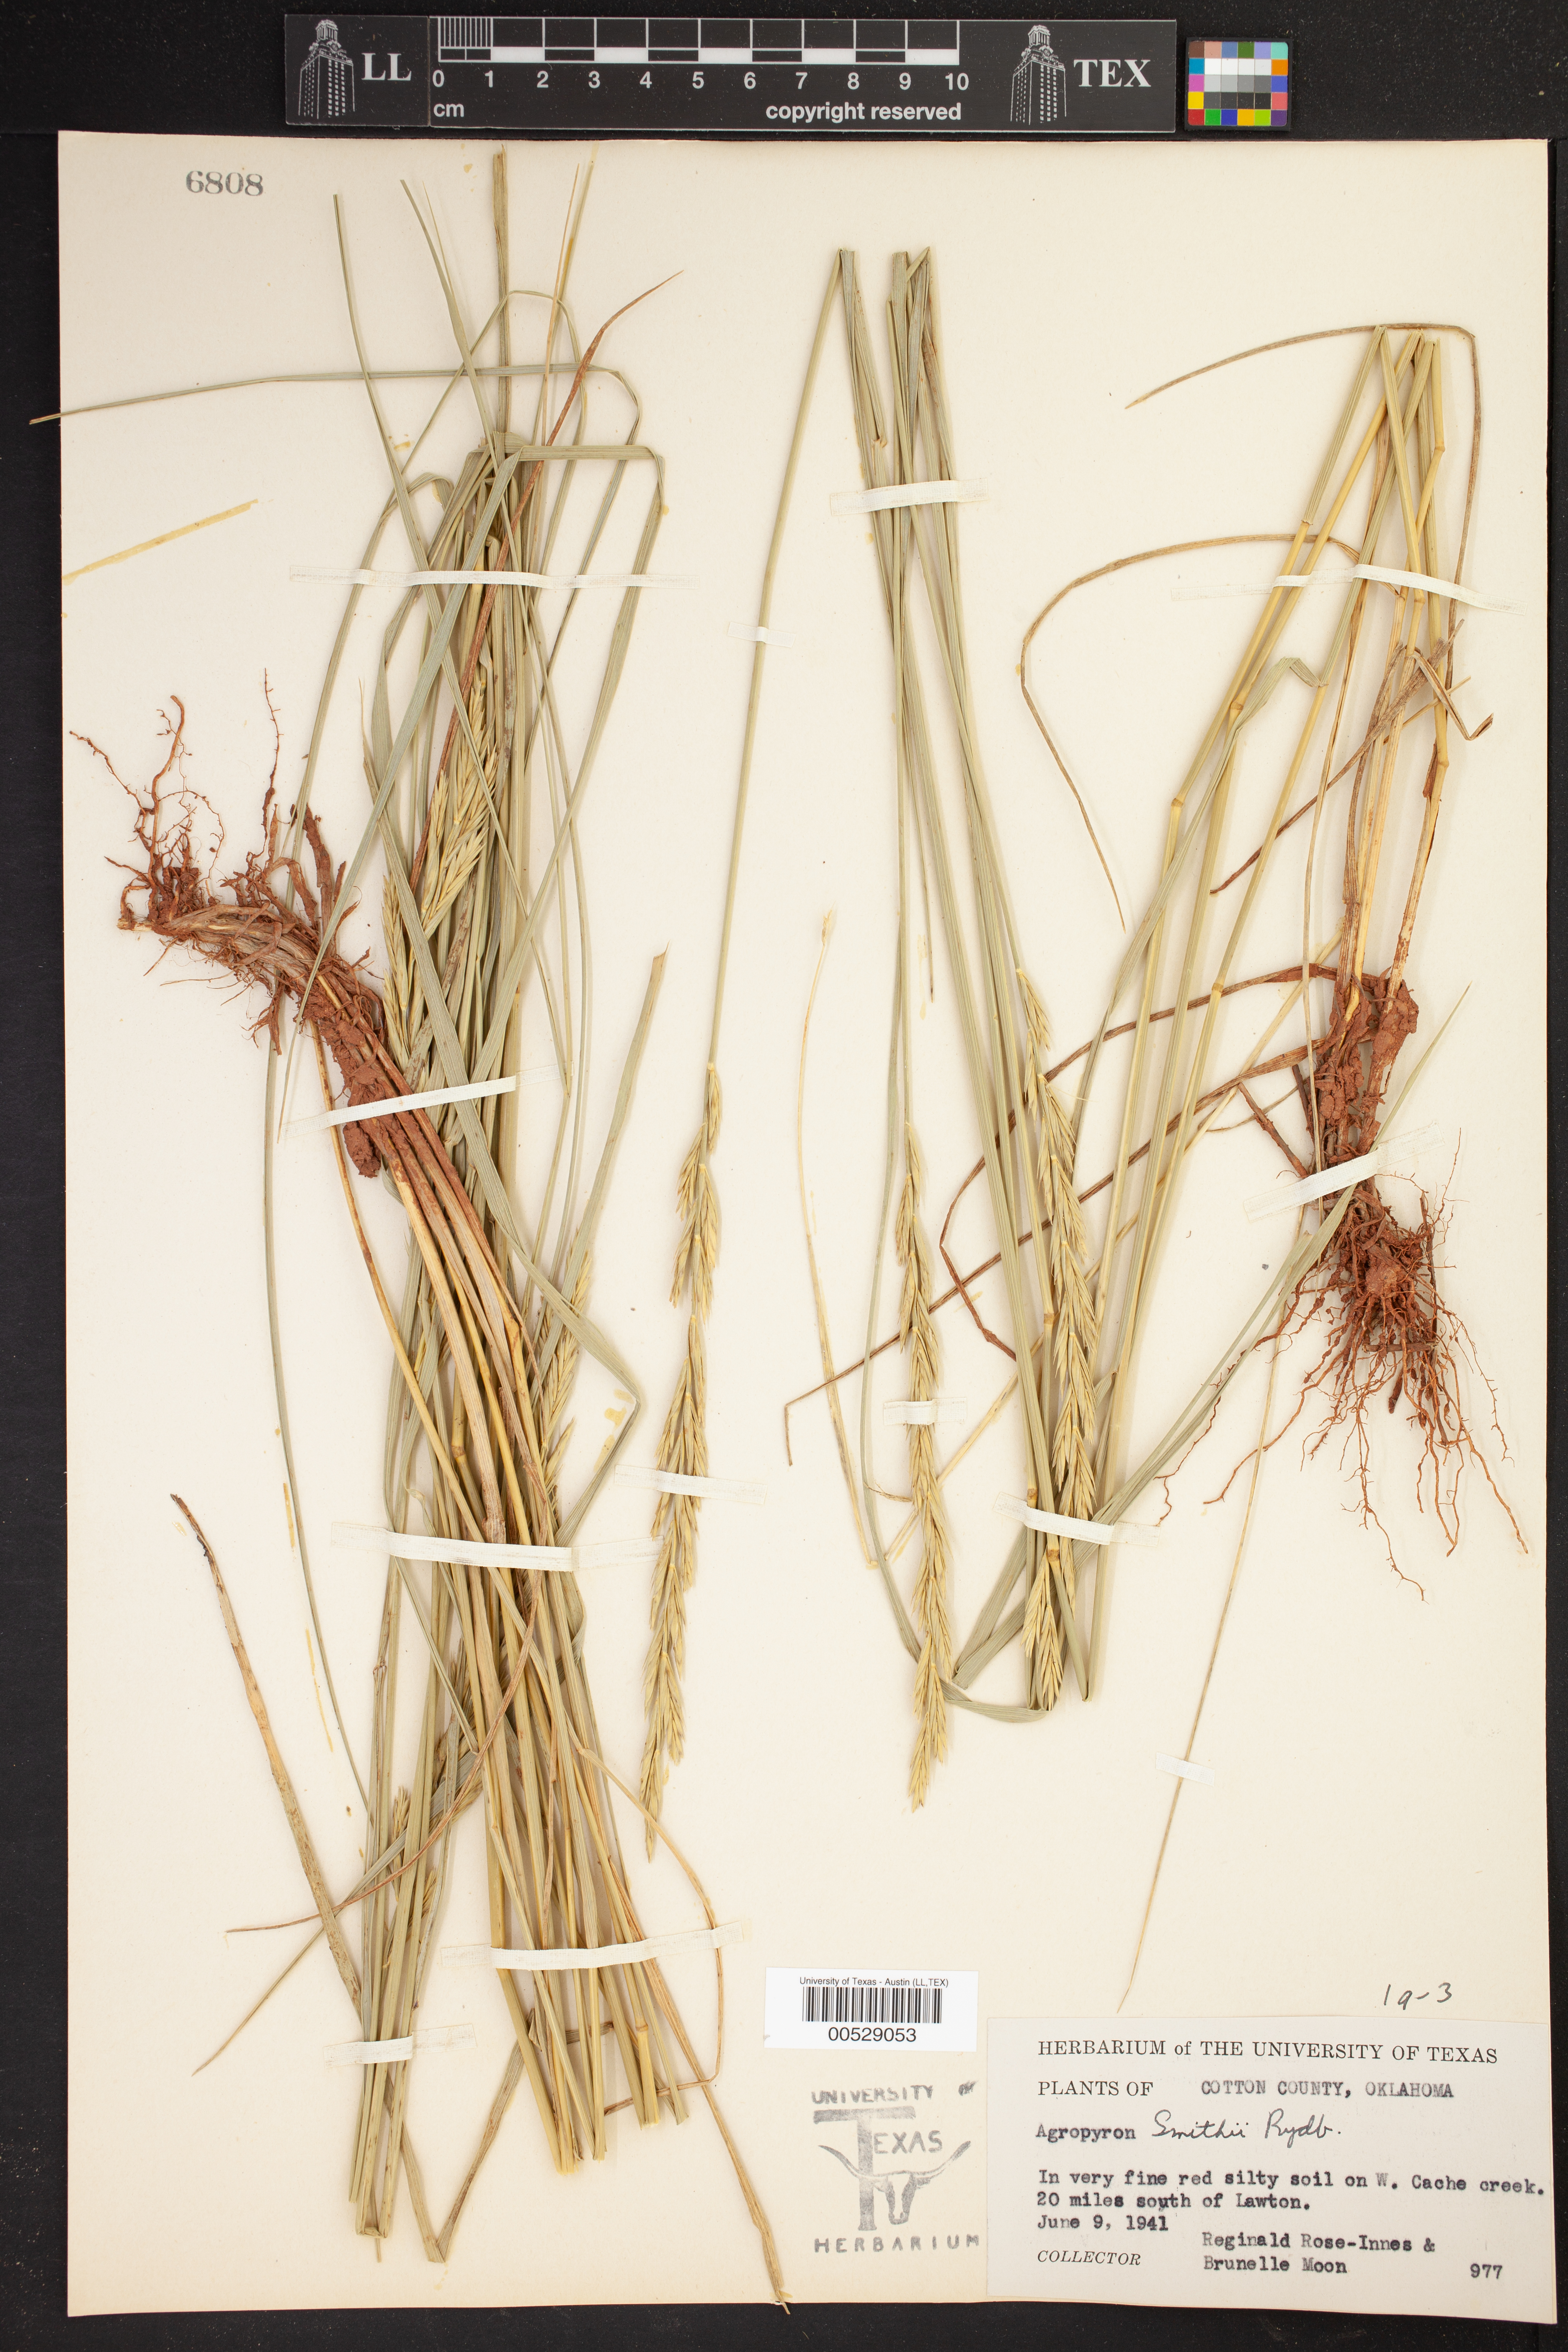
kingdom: Plantae
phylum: Tracheophyta
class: Liliopsida
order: Poales
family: Poaceae
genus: Elymus
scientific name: Elymus smithii
